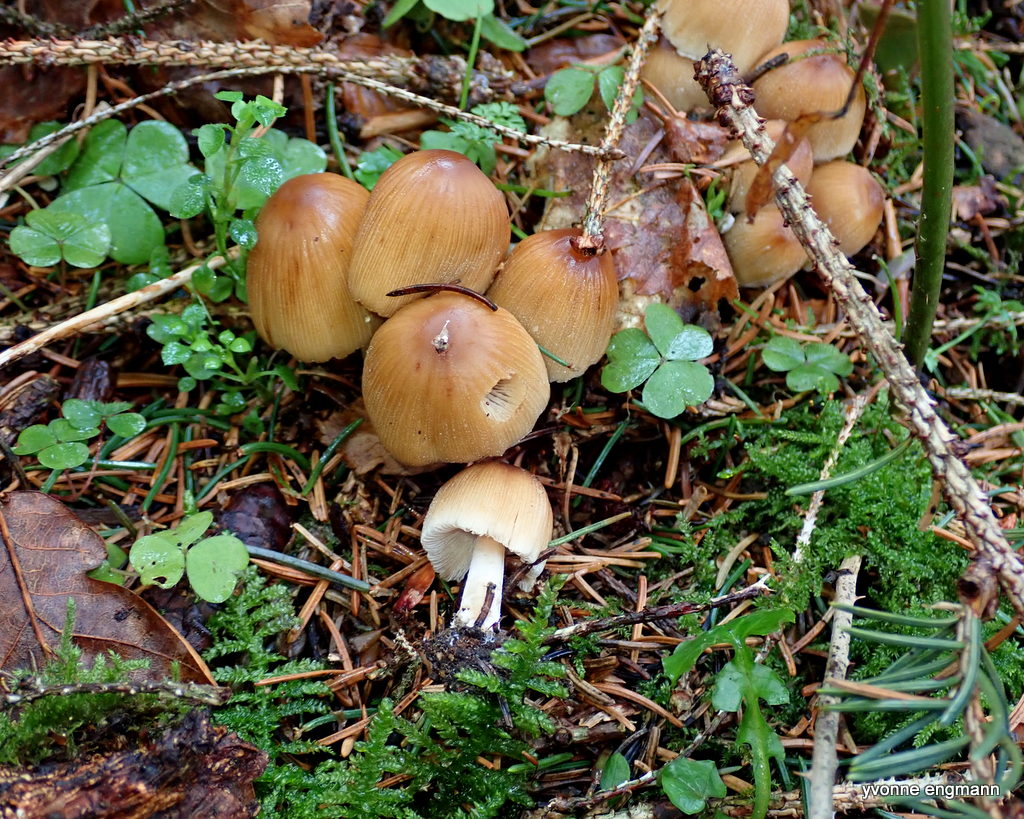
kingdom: Fungi
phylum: Basidiomycota
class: Agaricomycetes
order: Agaricales
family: Psathyrellaceae
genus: Coprinellus
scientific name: Coprinellus micaceus
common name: glimmer-blækhat
